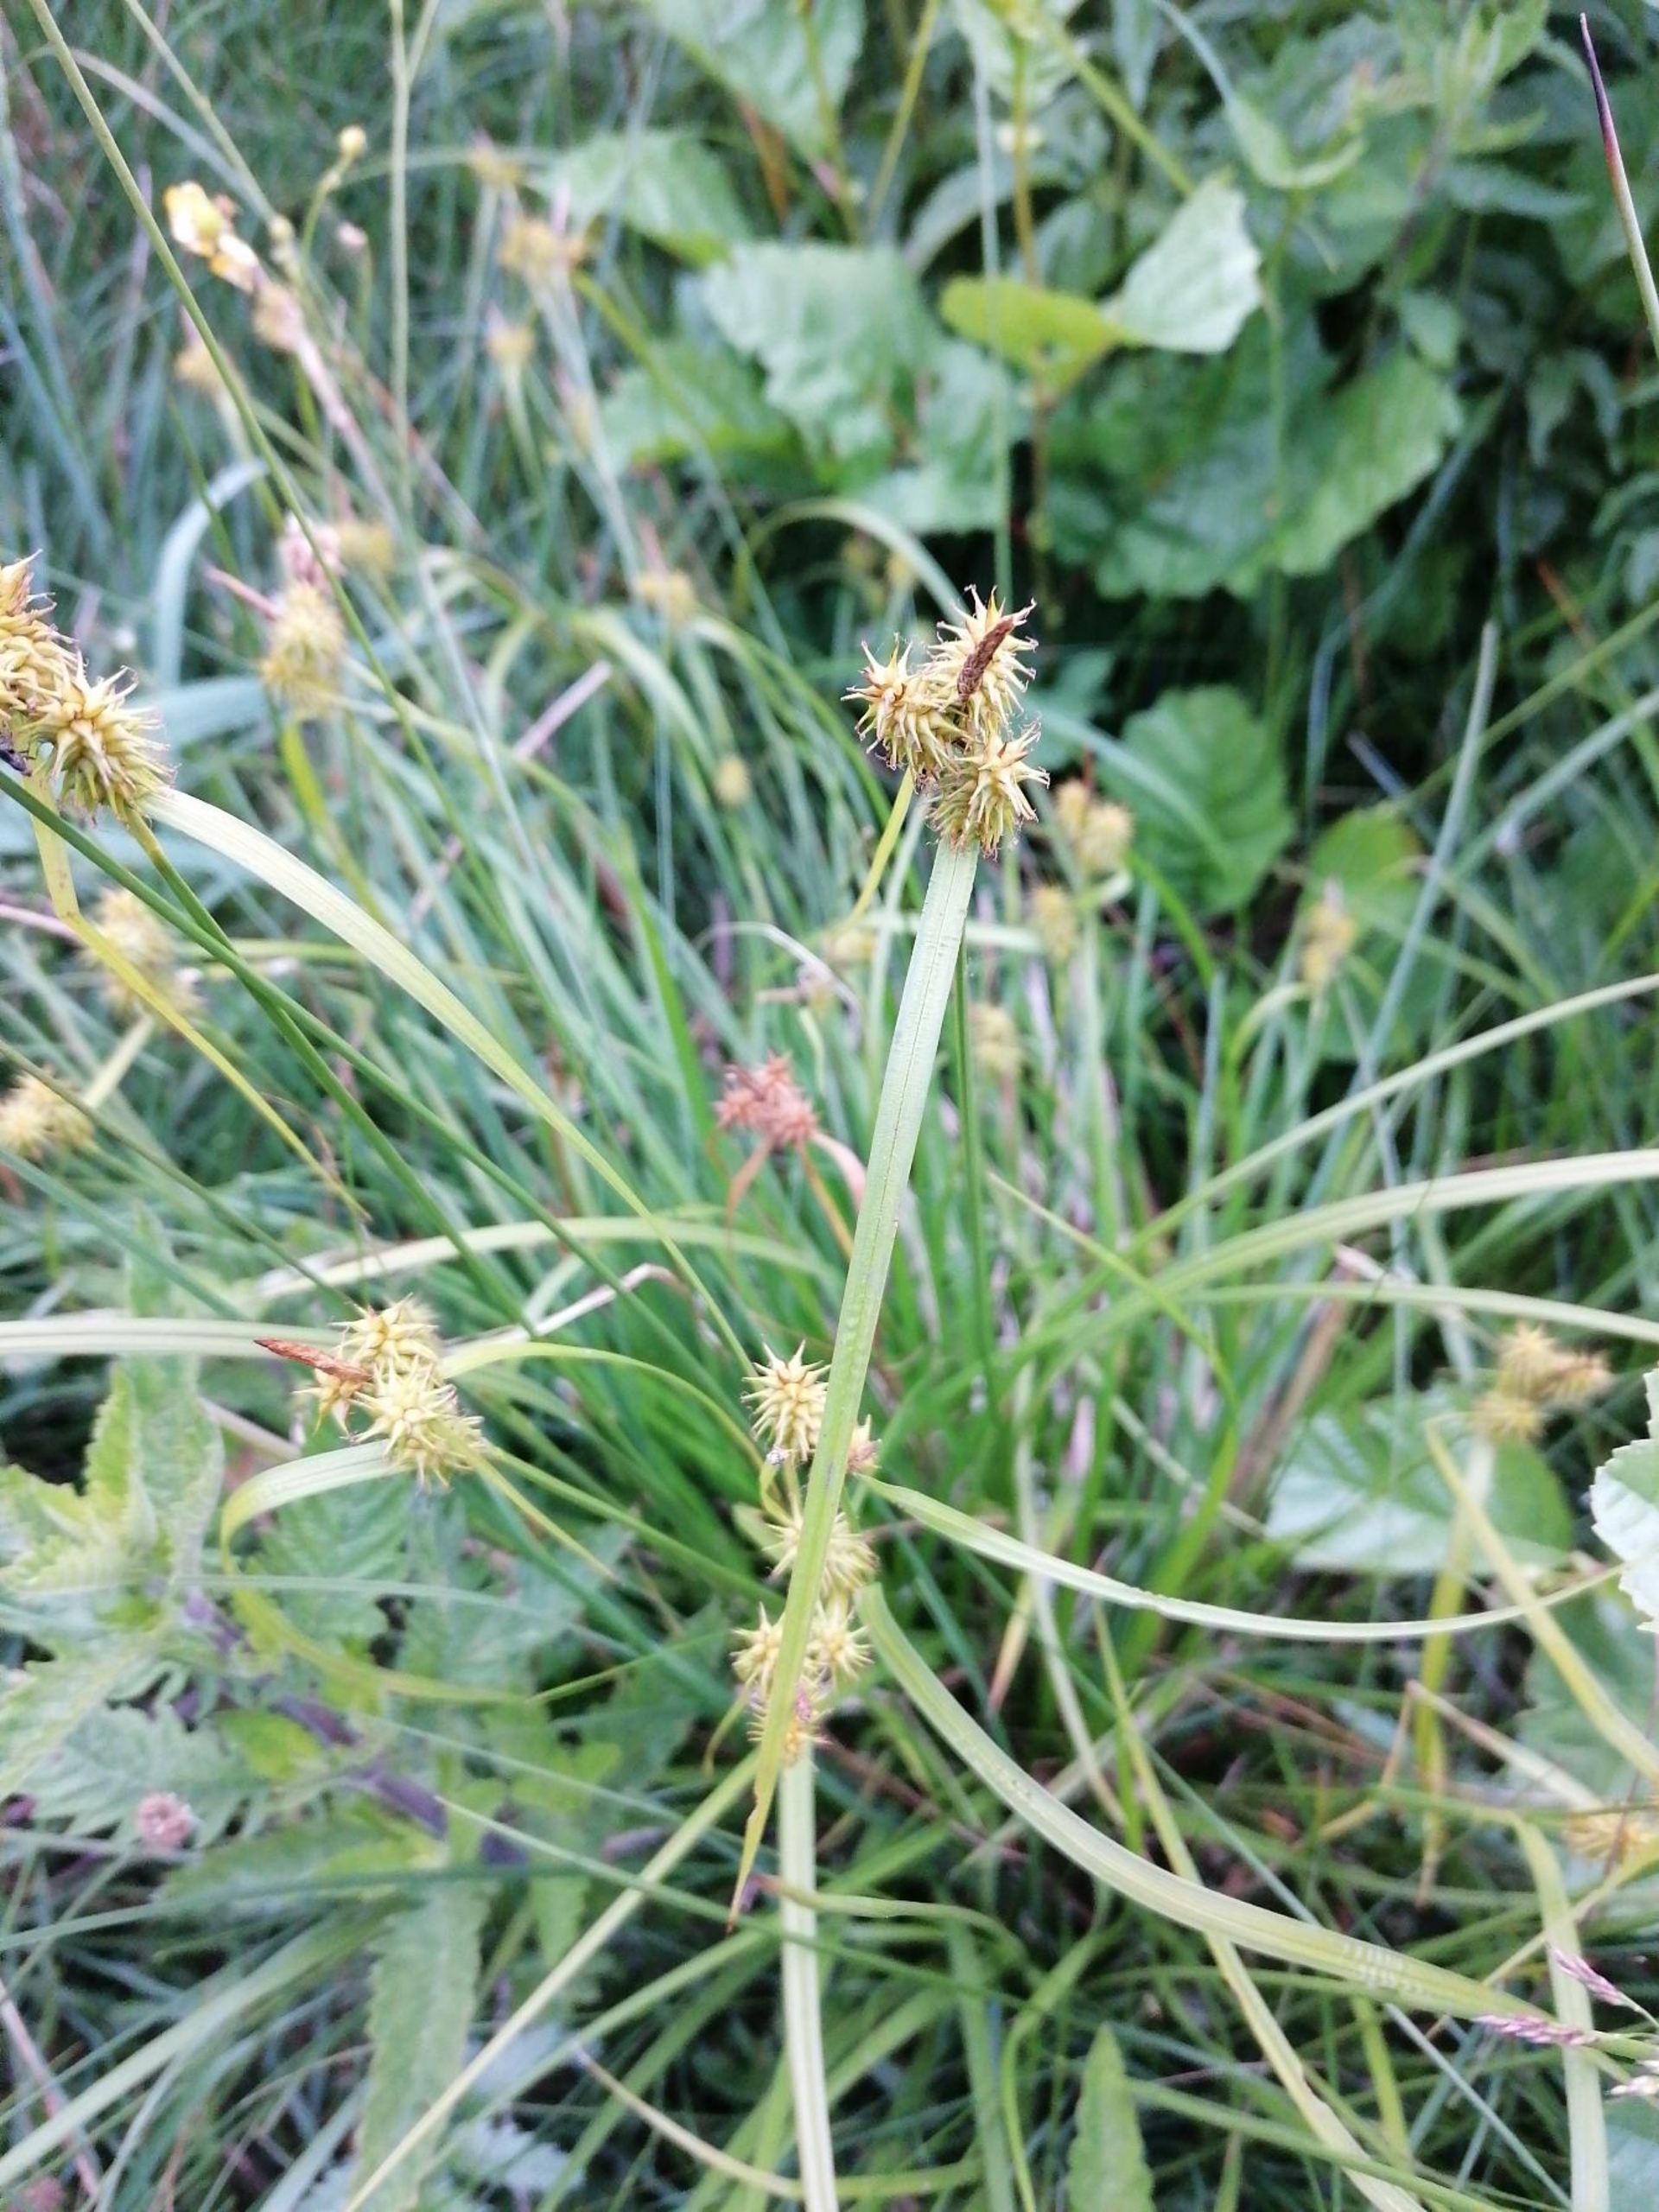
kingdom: Plantae
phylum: Tracheophyta
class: Liliopsida
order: Poales
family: Cyperaceae
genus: Carex
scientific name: Carex flava
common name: Gul star
